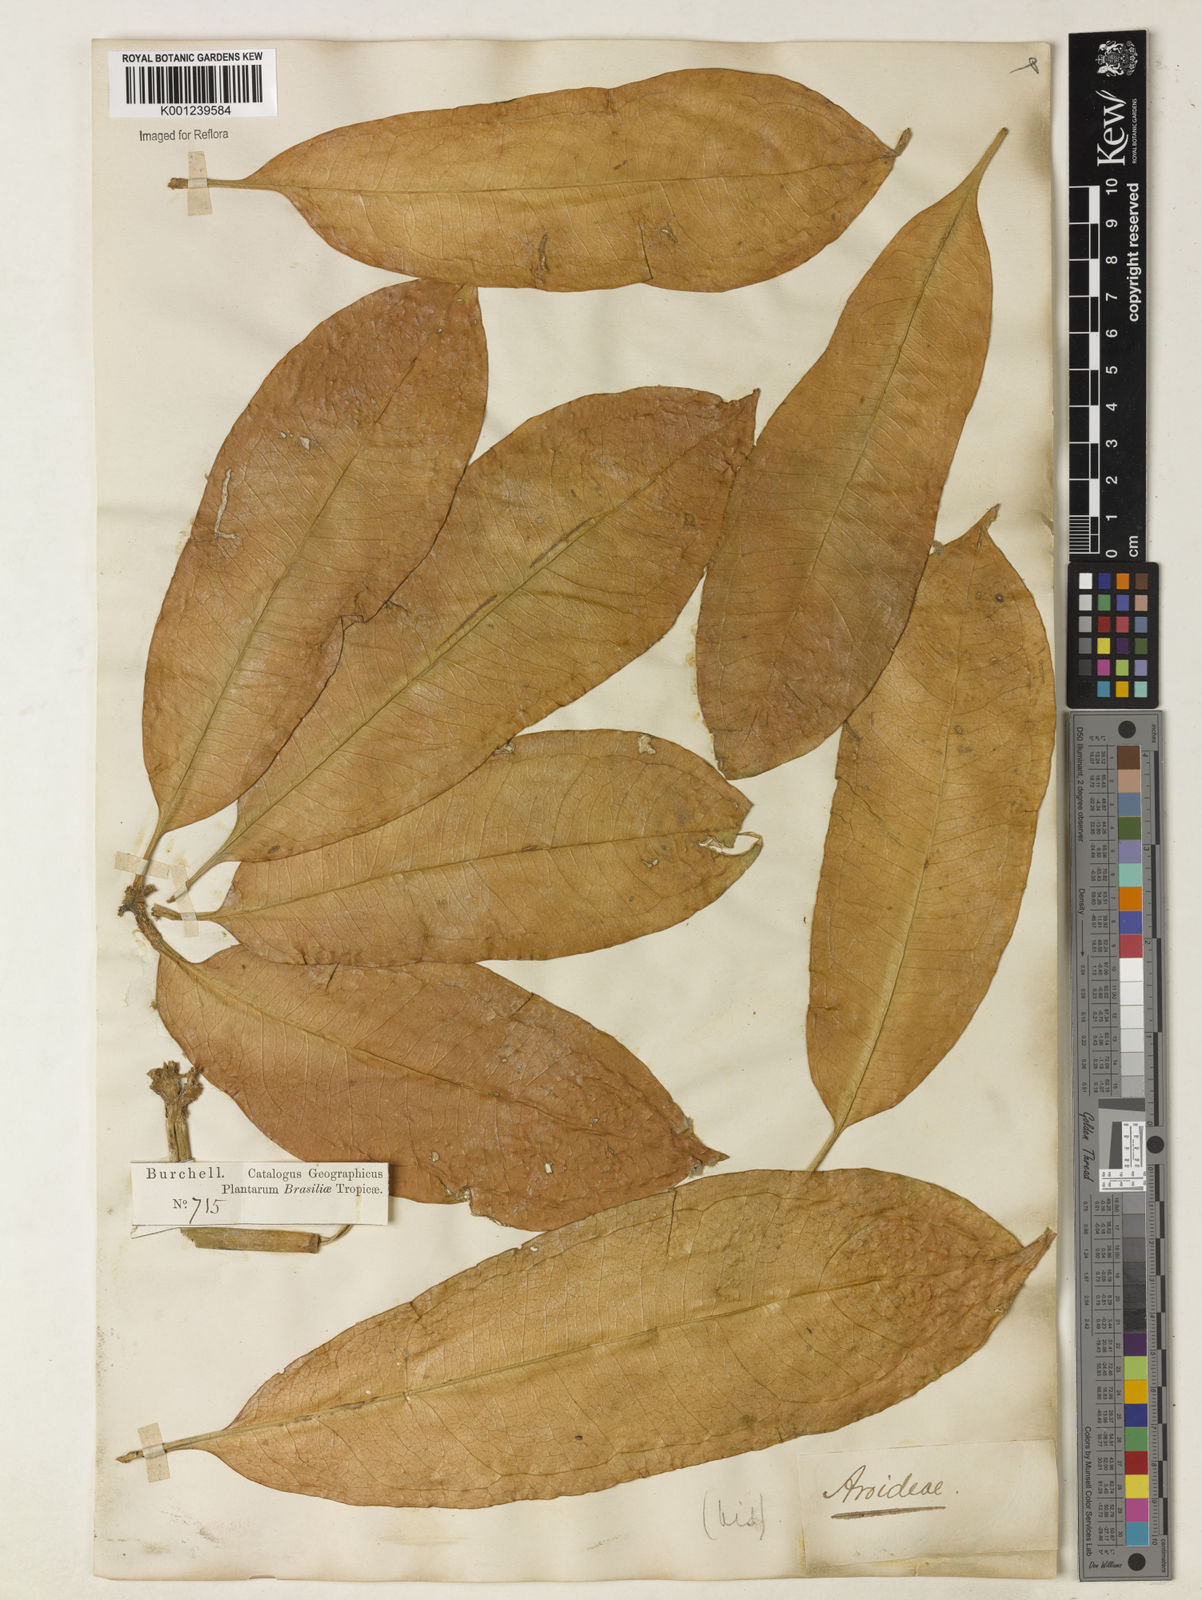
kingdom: Plantae
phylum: Tracheophyta
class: Liliopsida
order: Alismatales
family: Araceae
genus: Anthurium
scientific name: Anthurium pentaphyllum
